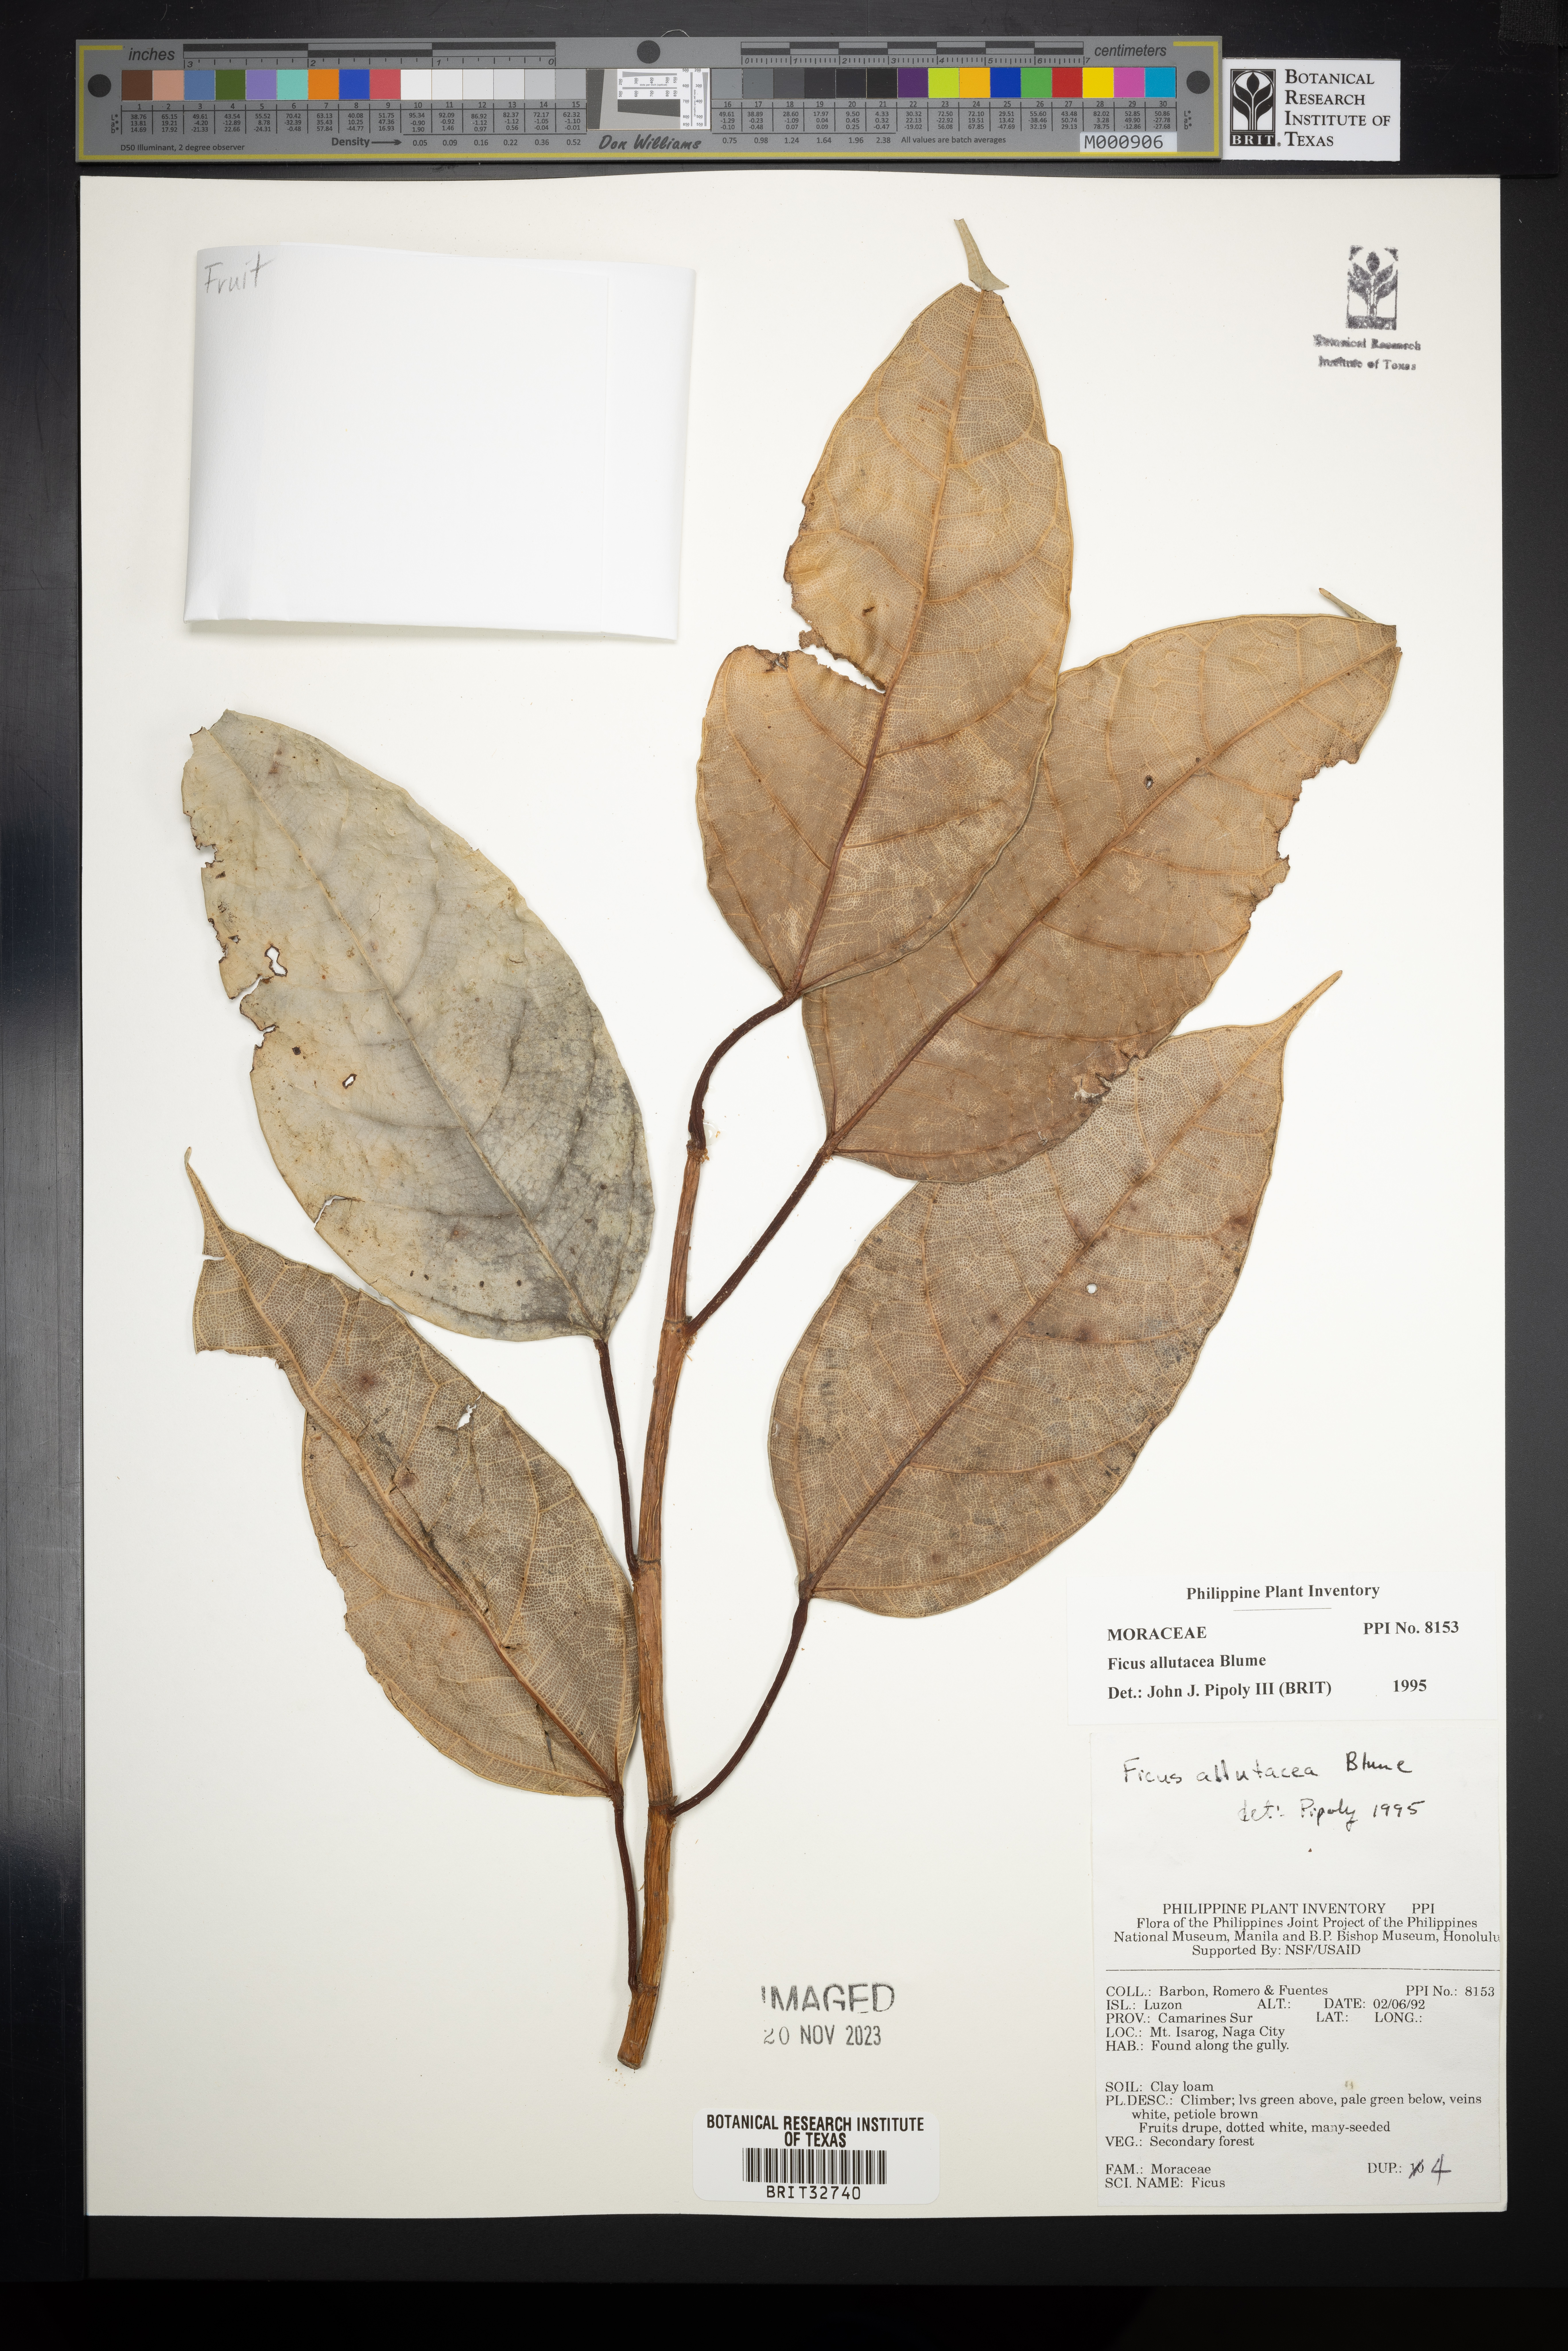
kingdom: Plantae
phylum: Tracheophyta
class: Magnoliopsida
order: Rosales
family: Moraceae
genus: Ficus
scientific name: Ficus allutacea
